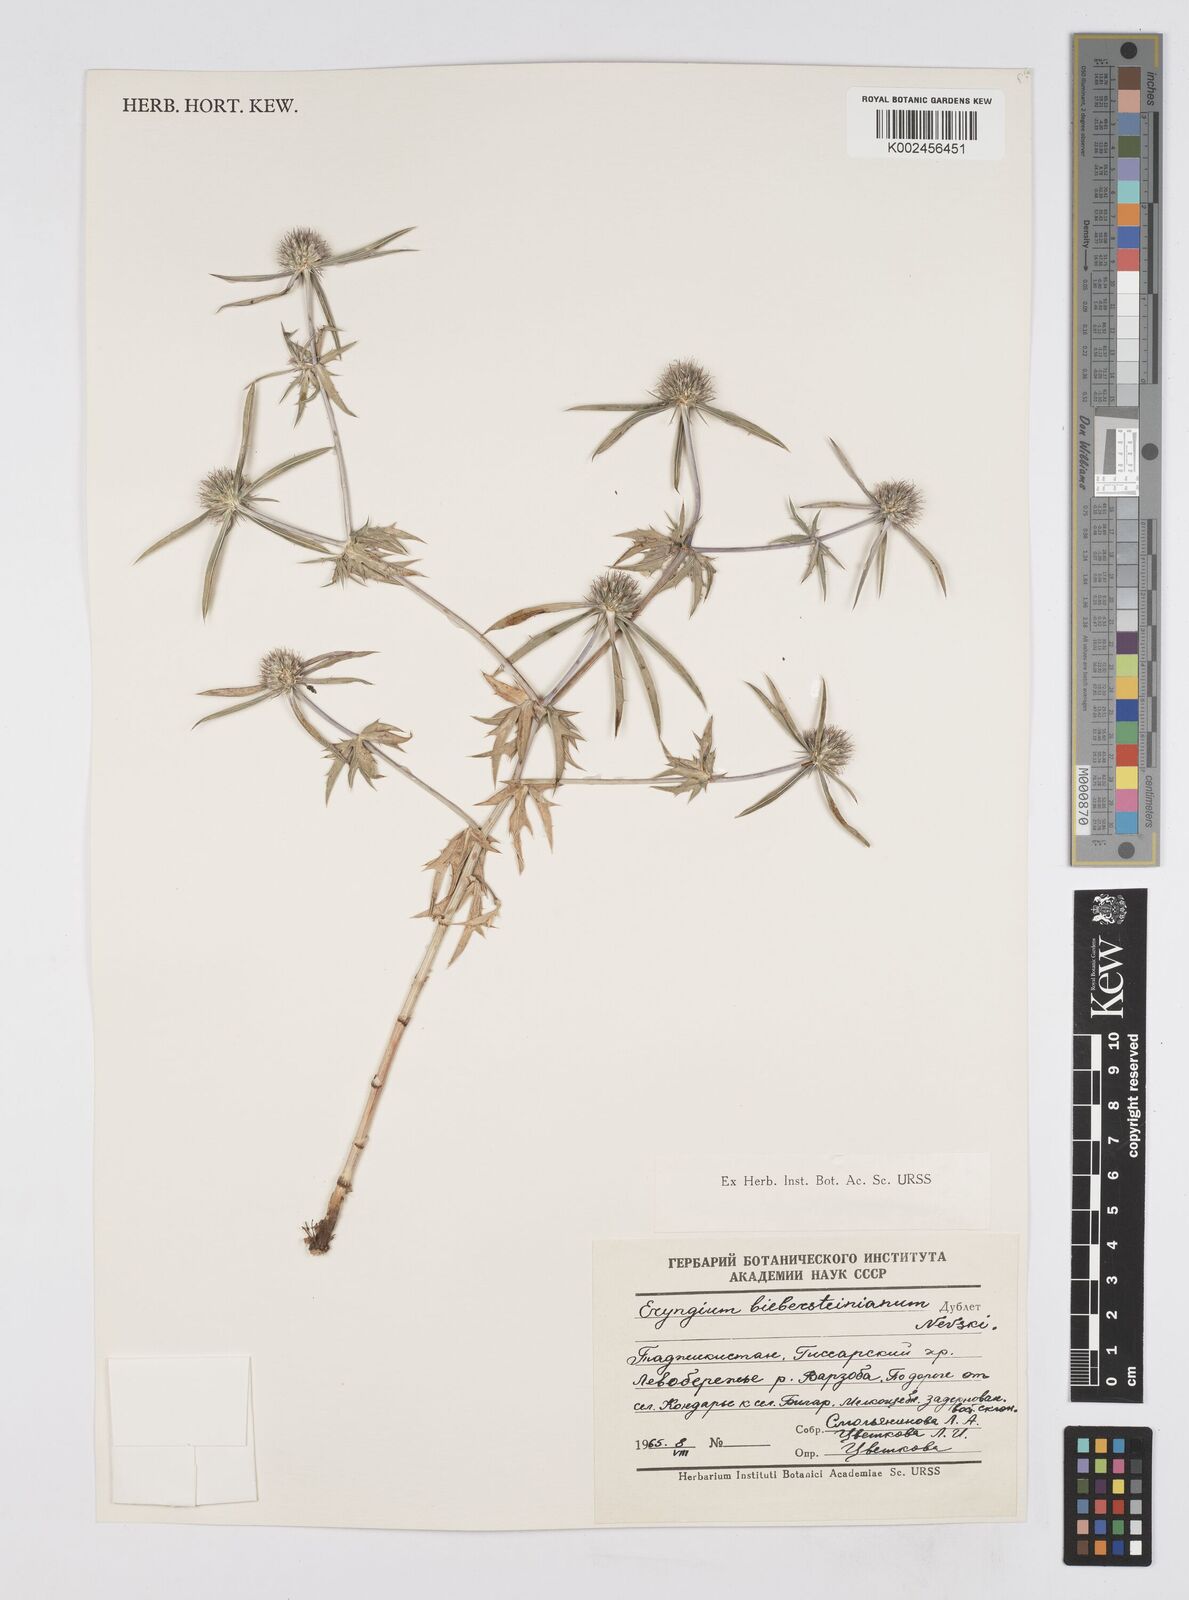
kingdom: Plantae
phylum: Tracheophyta
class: Magnoliopsida
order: Apiales
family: Apiaceae
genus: Eryngium
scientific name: Eryngium caeruleum
